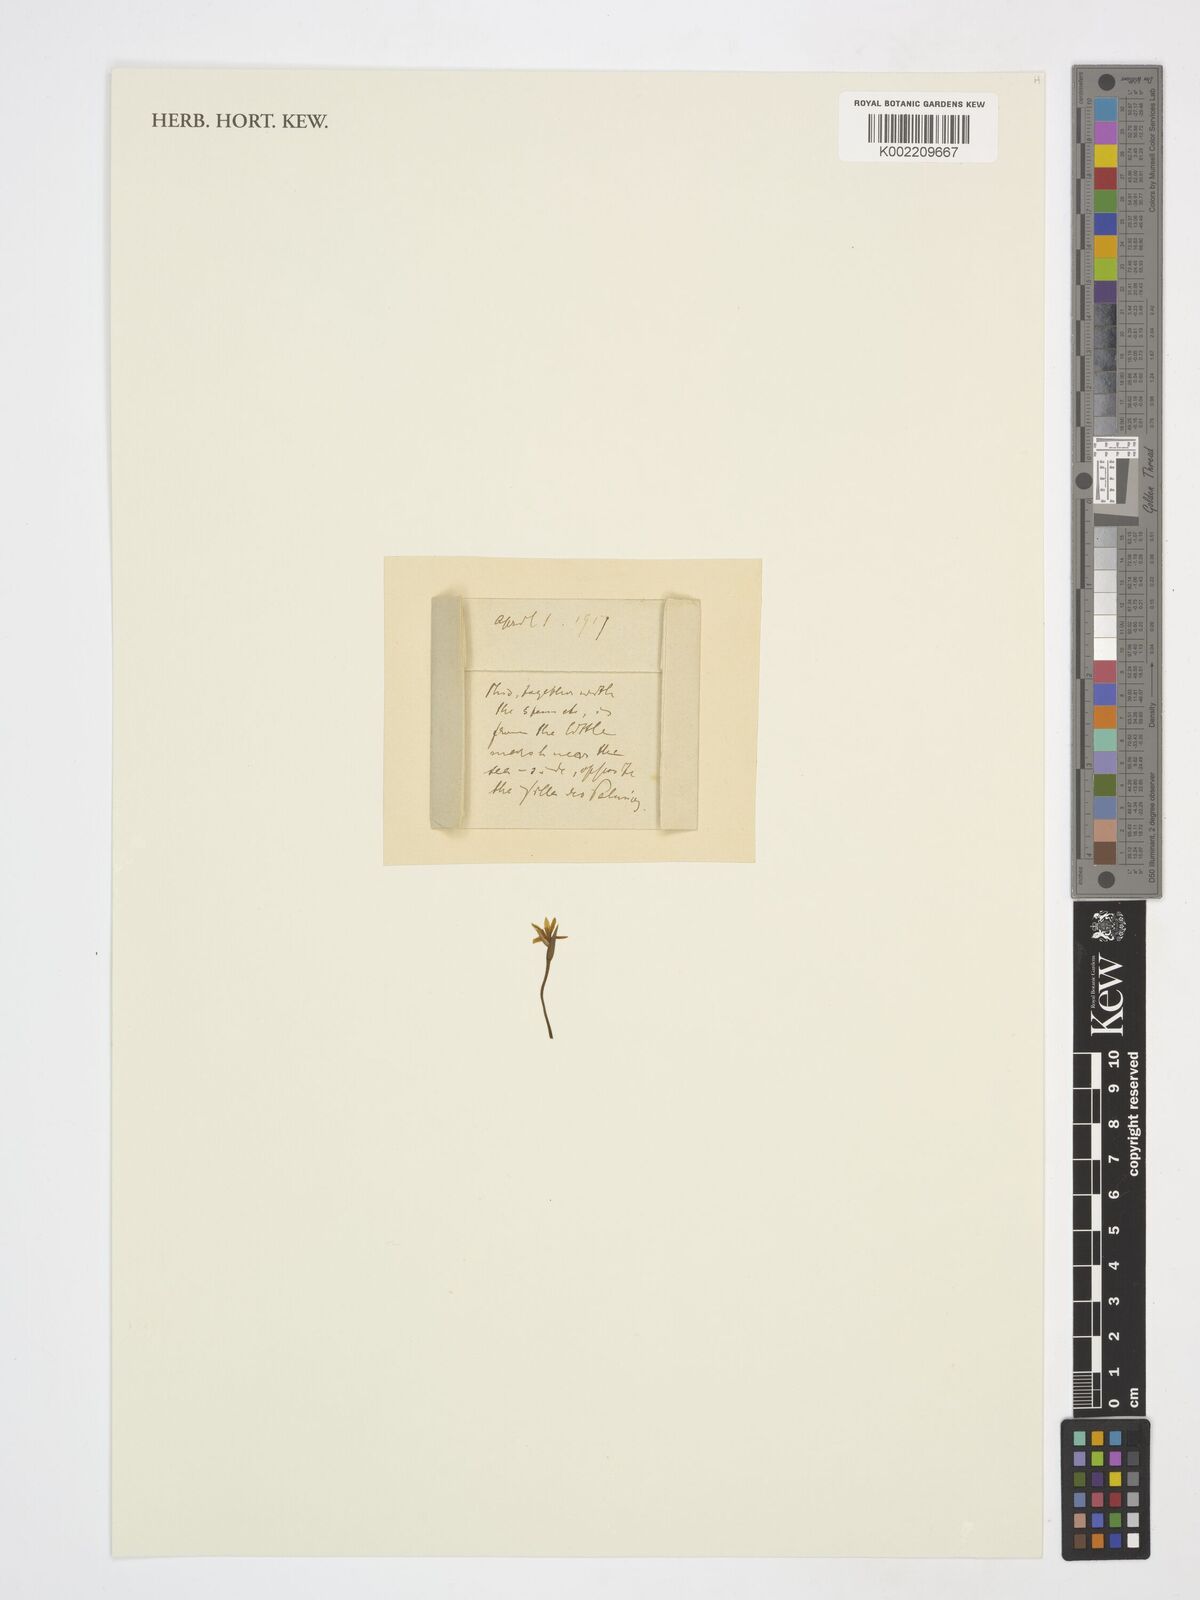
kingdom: Plantae
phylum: Tracheophyta
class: Liliopsida
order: Asparagales
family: Iridaceae
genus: Romulea
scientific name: Romulea ramiflora
